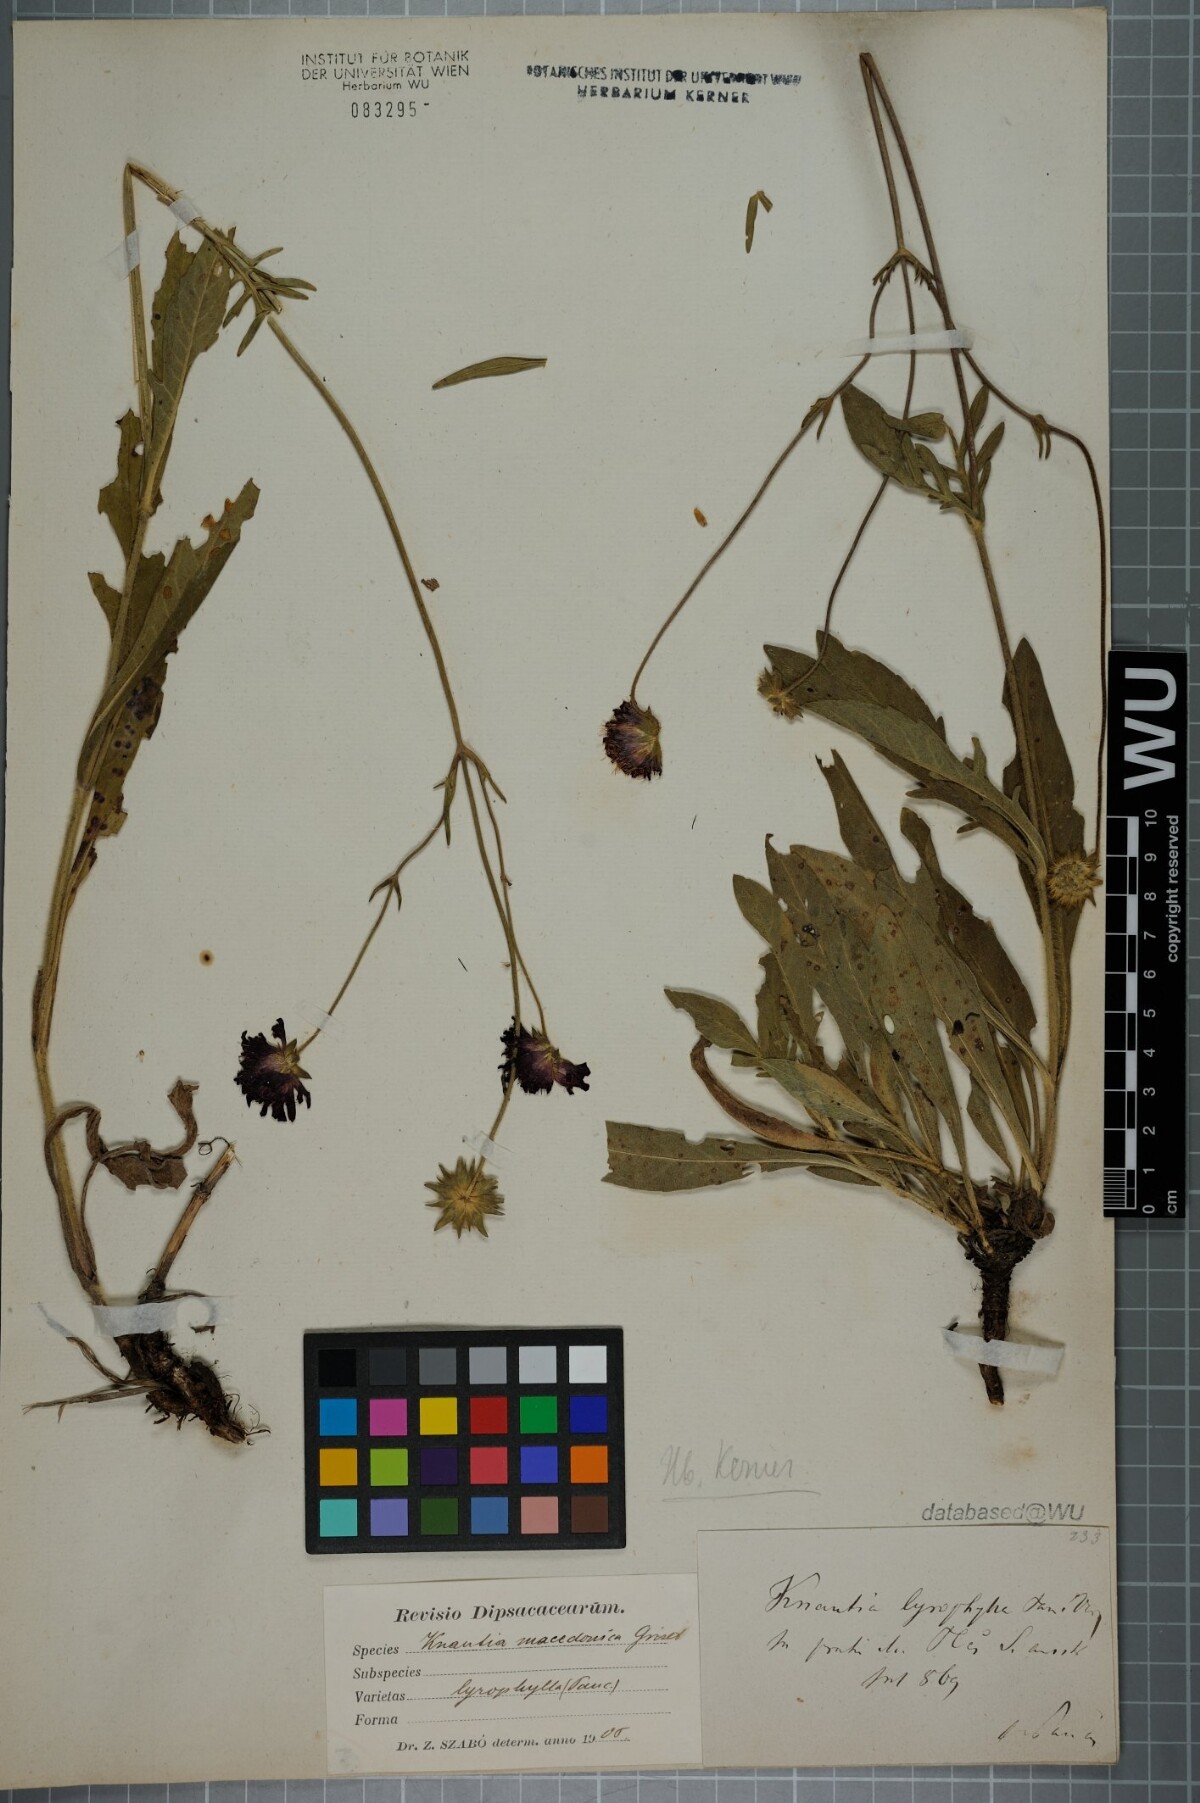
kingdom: Plantae
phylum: Tracheophyta
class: Magnoliopsida
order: Dipsacales
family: Caprifoliaceae
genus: Knautia
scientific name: Knautia macedonica
